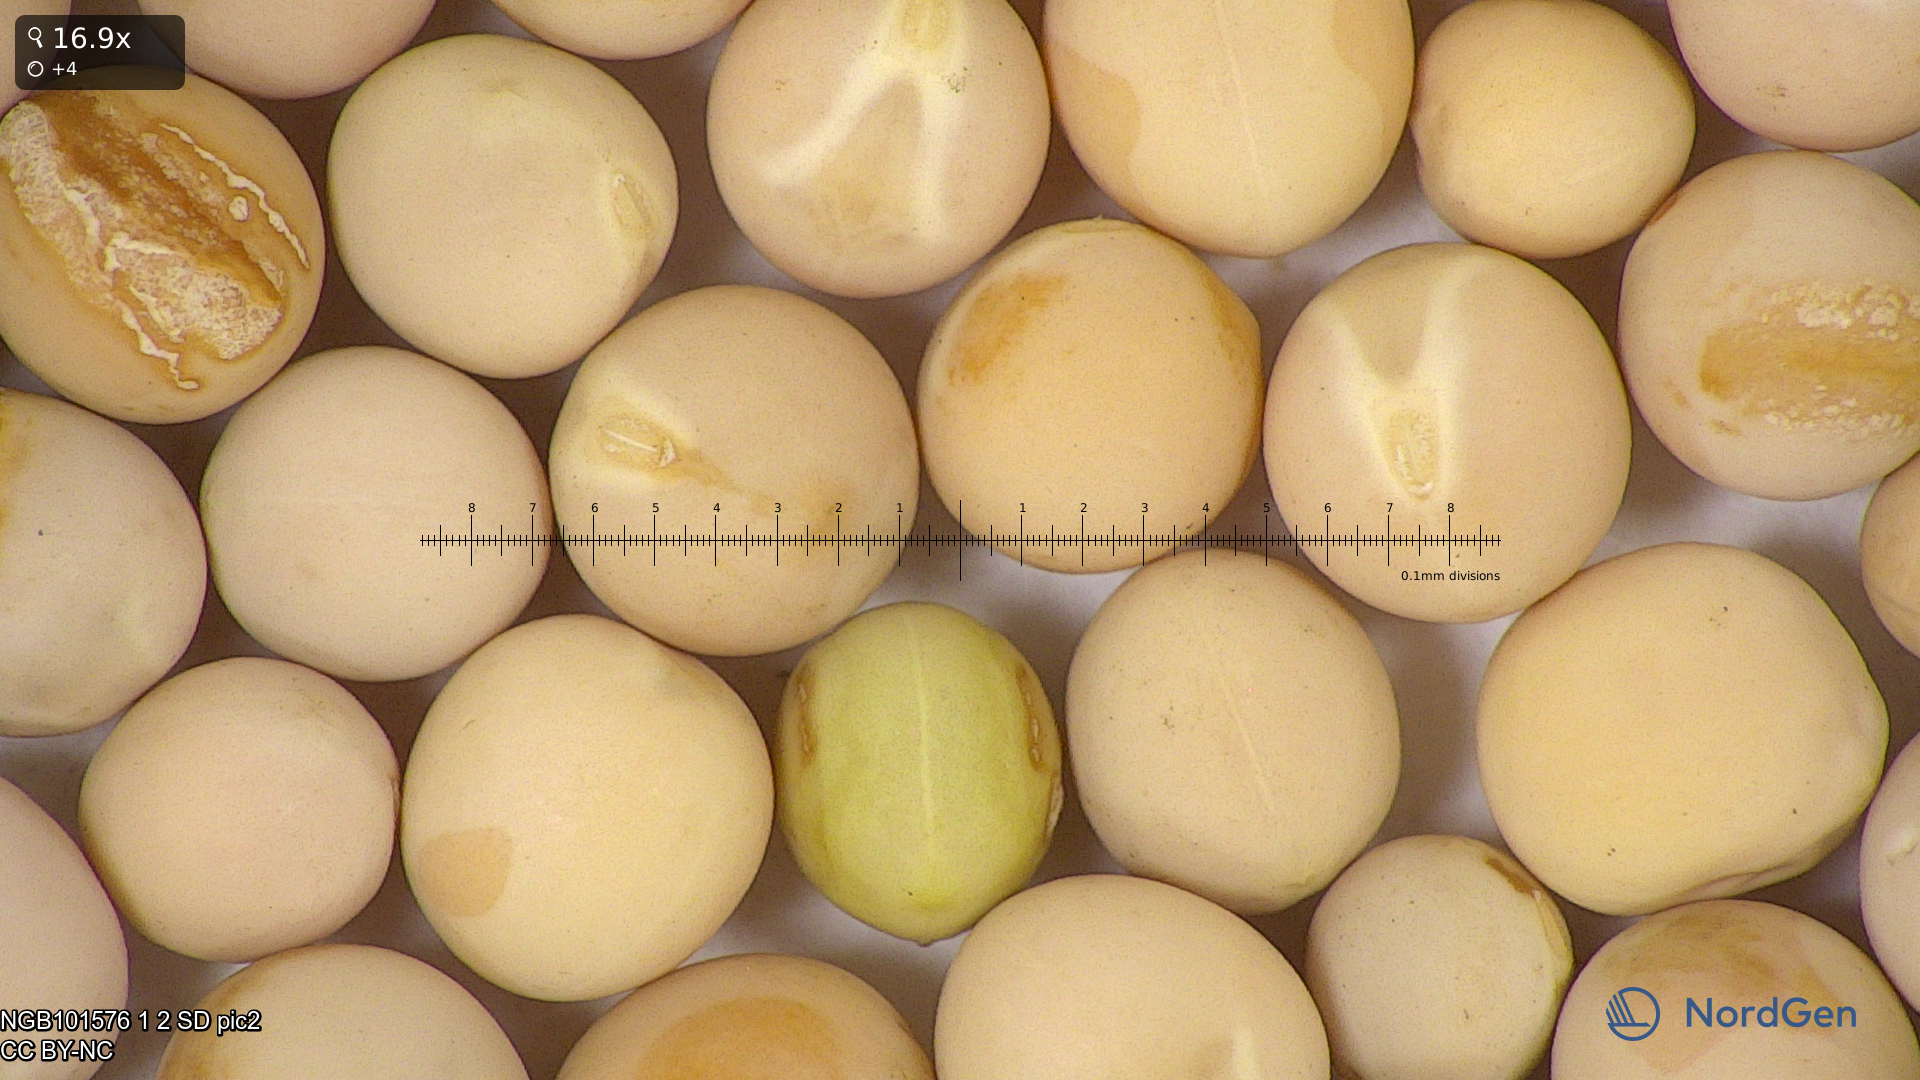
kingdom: Plantae
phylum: Tracheophyta
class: Magnoliopsida
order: Fabales
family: Fabaceae
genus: Lathyrus
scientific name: Lathyrus oleraceus
